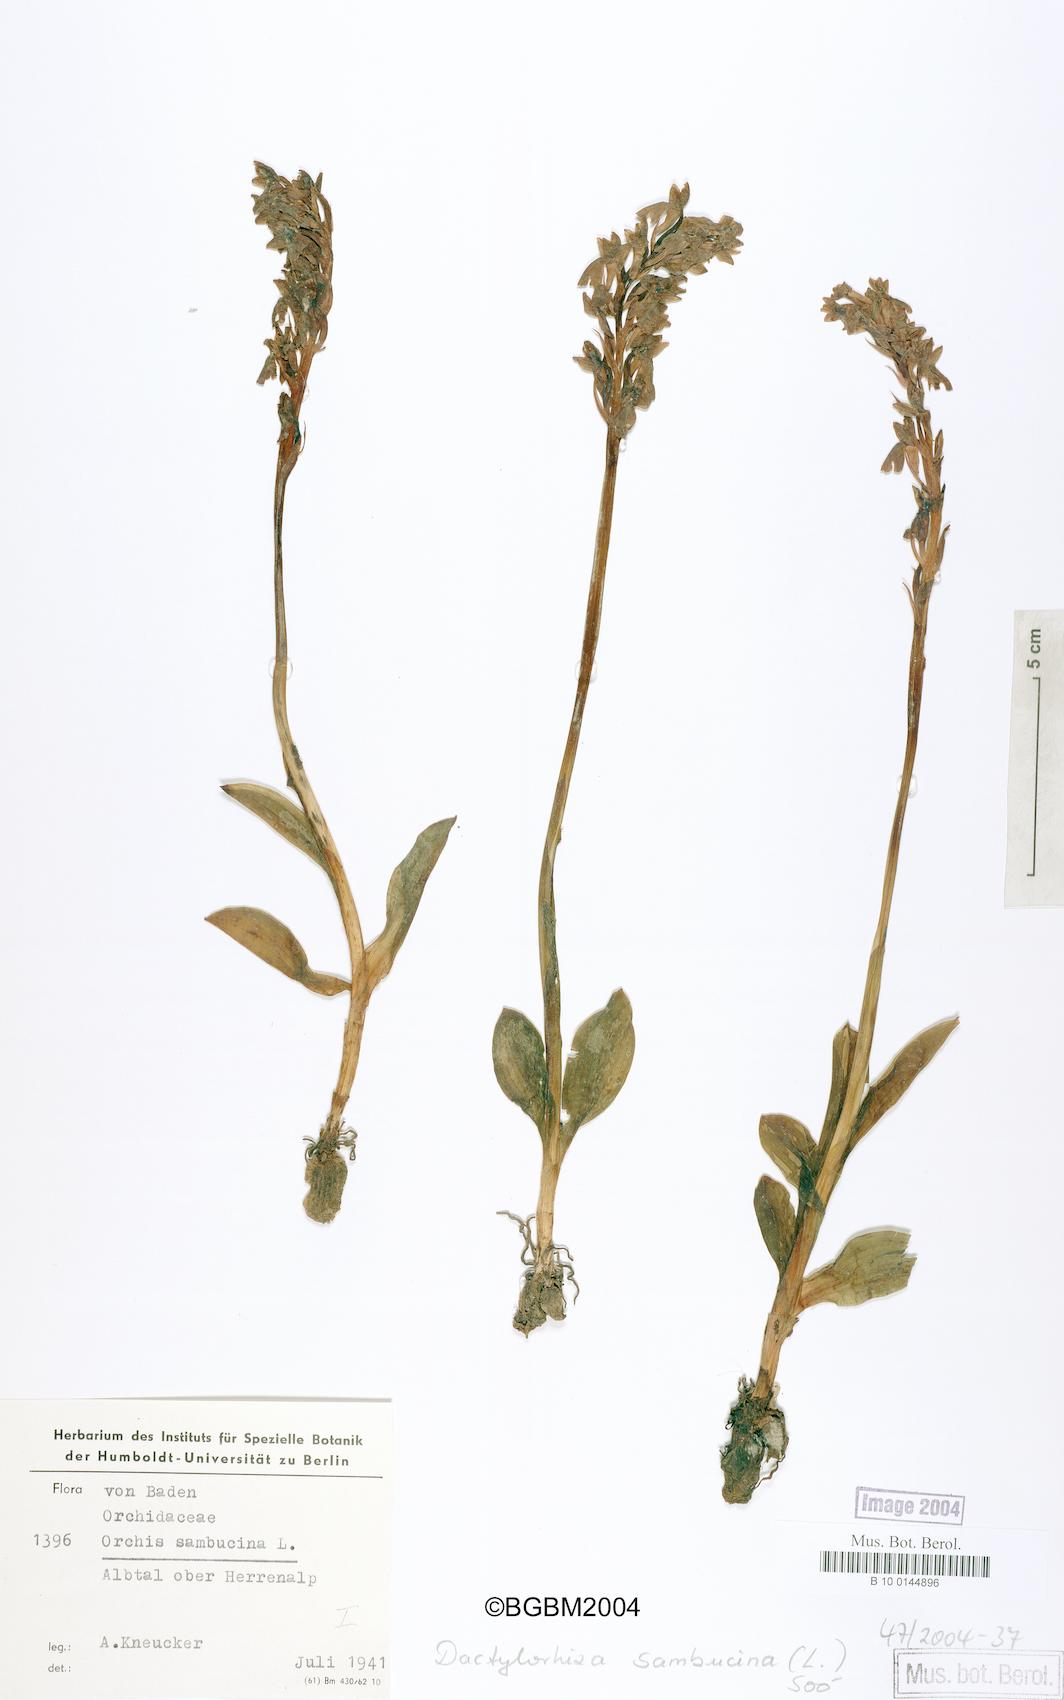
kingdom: Plantae
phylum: Tracheophyta
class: Liliopsida
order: Asparagales
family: Orchidaceae
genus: Dactylorhiza
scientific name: Dactylorhiza sambucina
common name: Elder-flowered orchid
